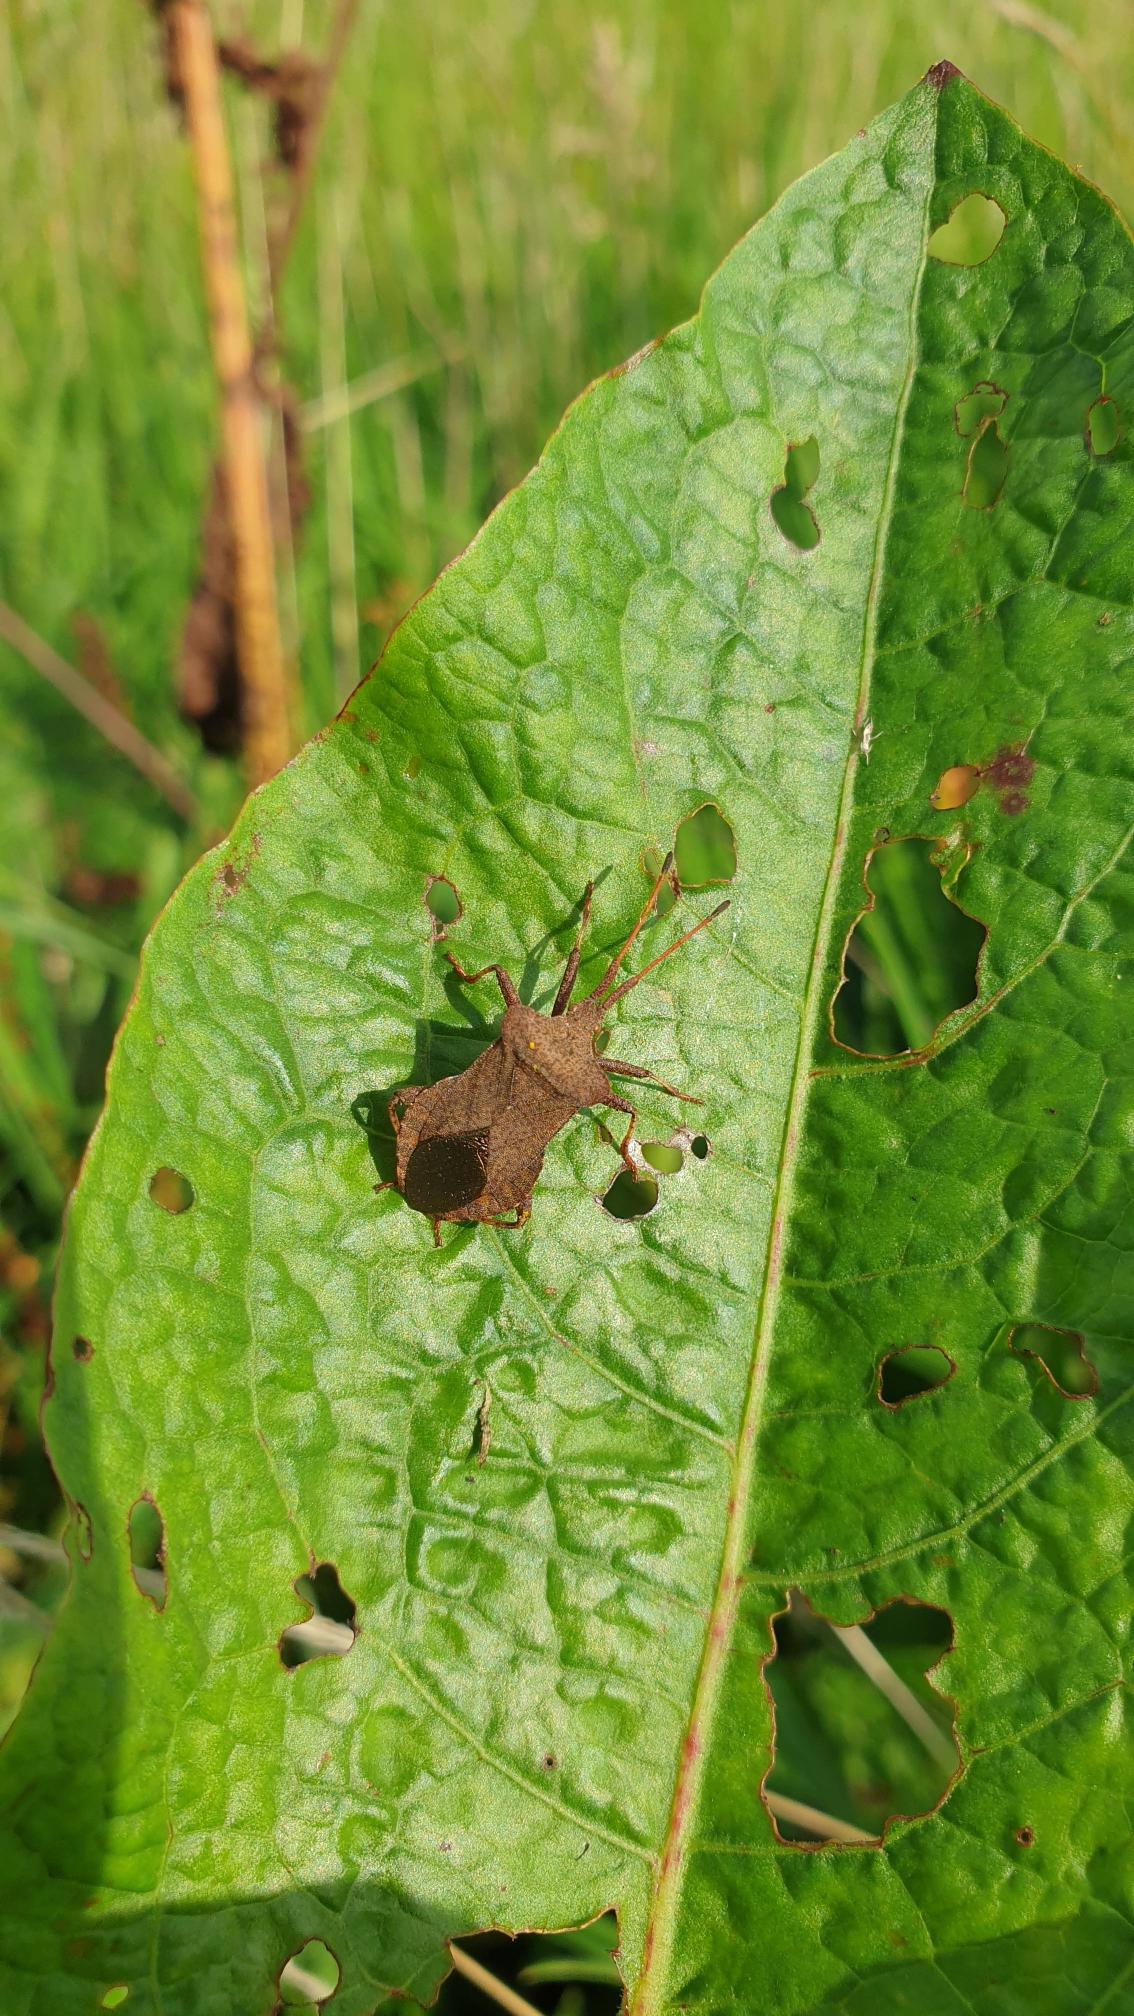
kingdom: Animalia
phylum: Arthropoda
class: Insecta
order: Hemiptera
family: Coreidae
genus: Coreus
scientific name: Coreus marginatus
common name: Skræppetæge
